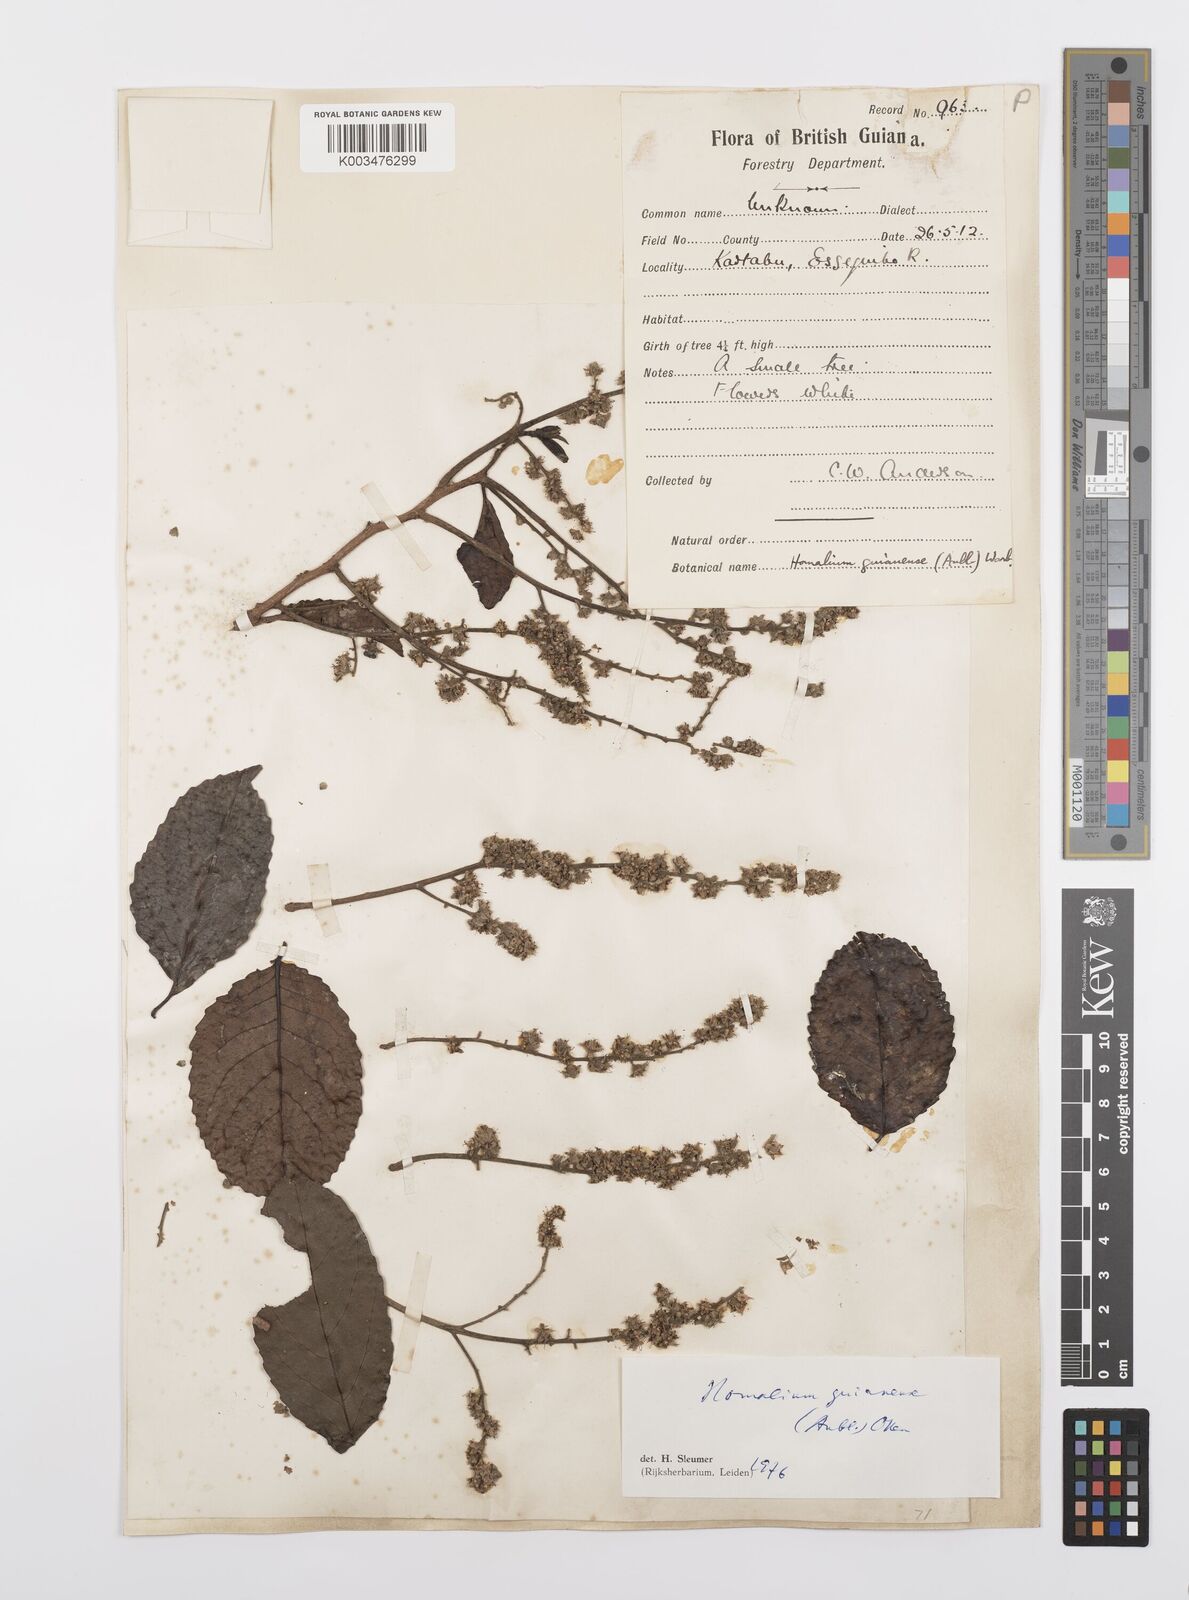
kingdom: Plantae
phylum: Tracheophyta
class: Magnoliopsida
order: Malpighiales
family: Salicaceae
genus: Homalium
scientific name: Homalium guianense
